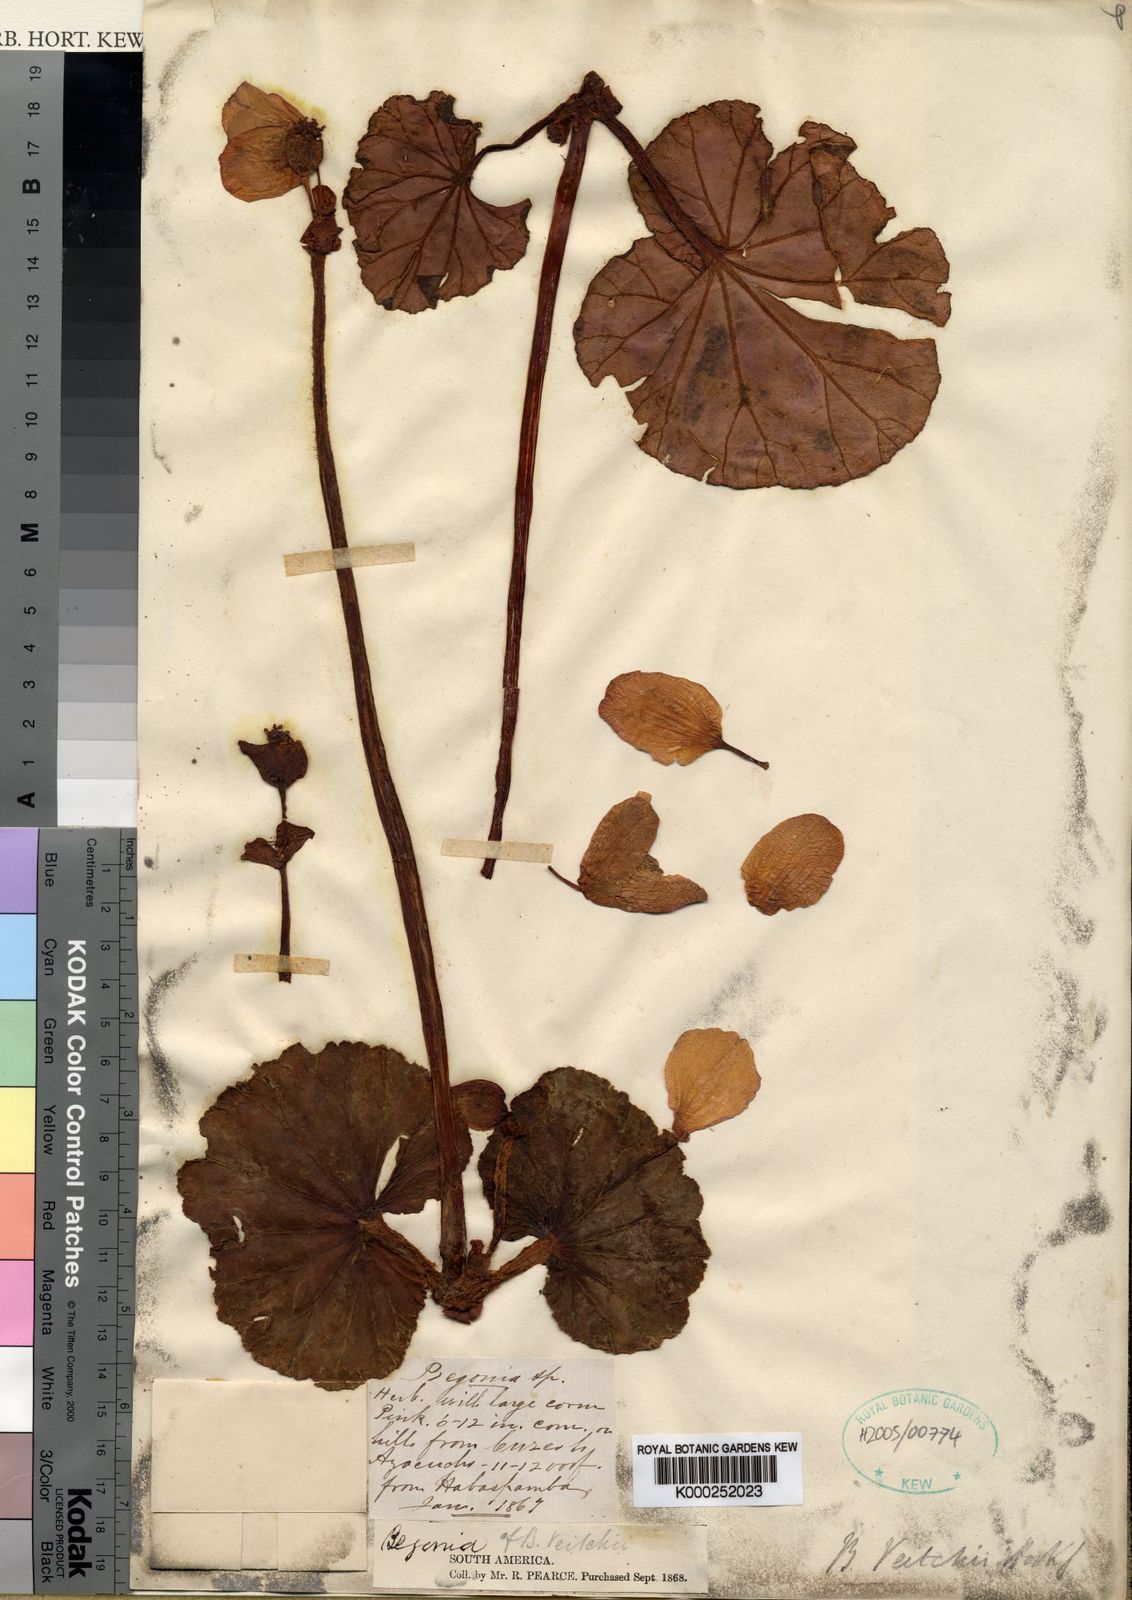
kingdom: Plantae
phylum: Tracheophyta
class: Magnoliopsida
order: Cucurbitales
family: Begoniaceae
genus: Begonia
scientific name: Begonia clarkei
